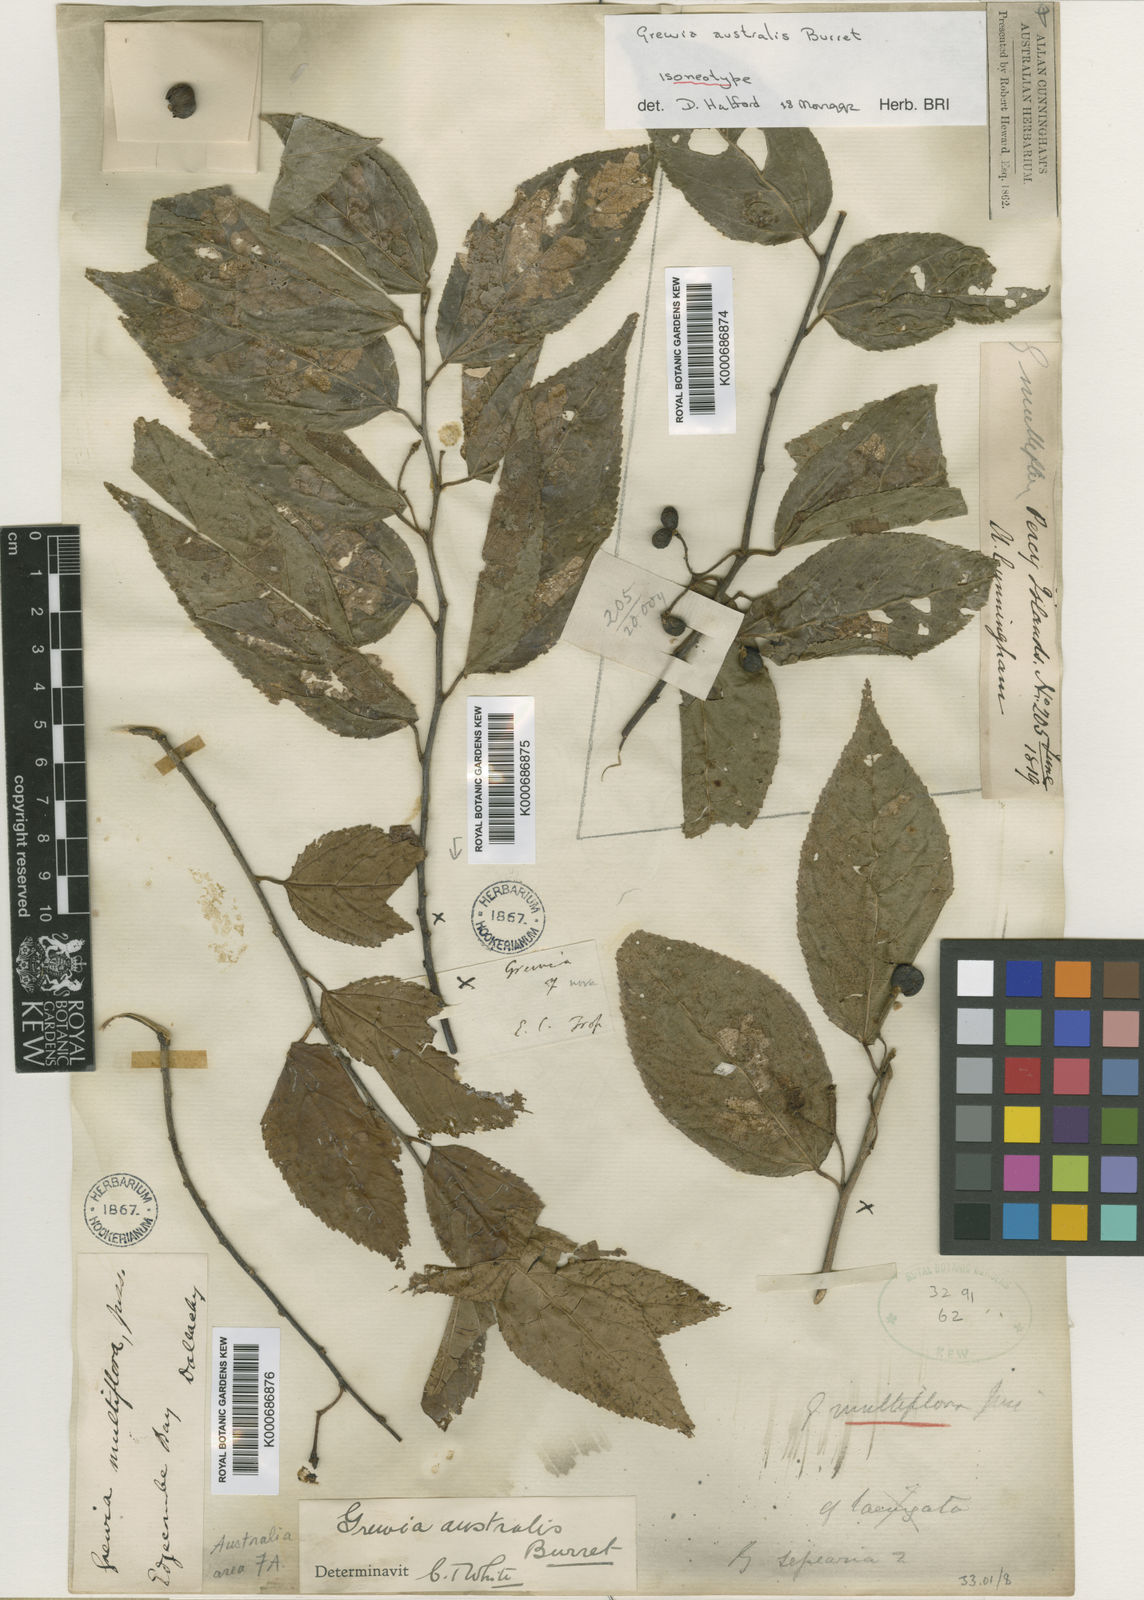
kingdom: Plantae
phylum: Tracheophyta
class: Magnoliopsida
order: Malvales
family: Malvaceae
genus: Grewia
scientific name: Grewia australis
